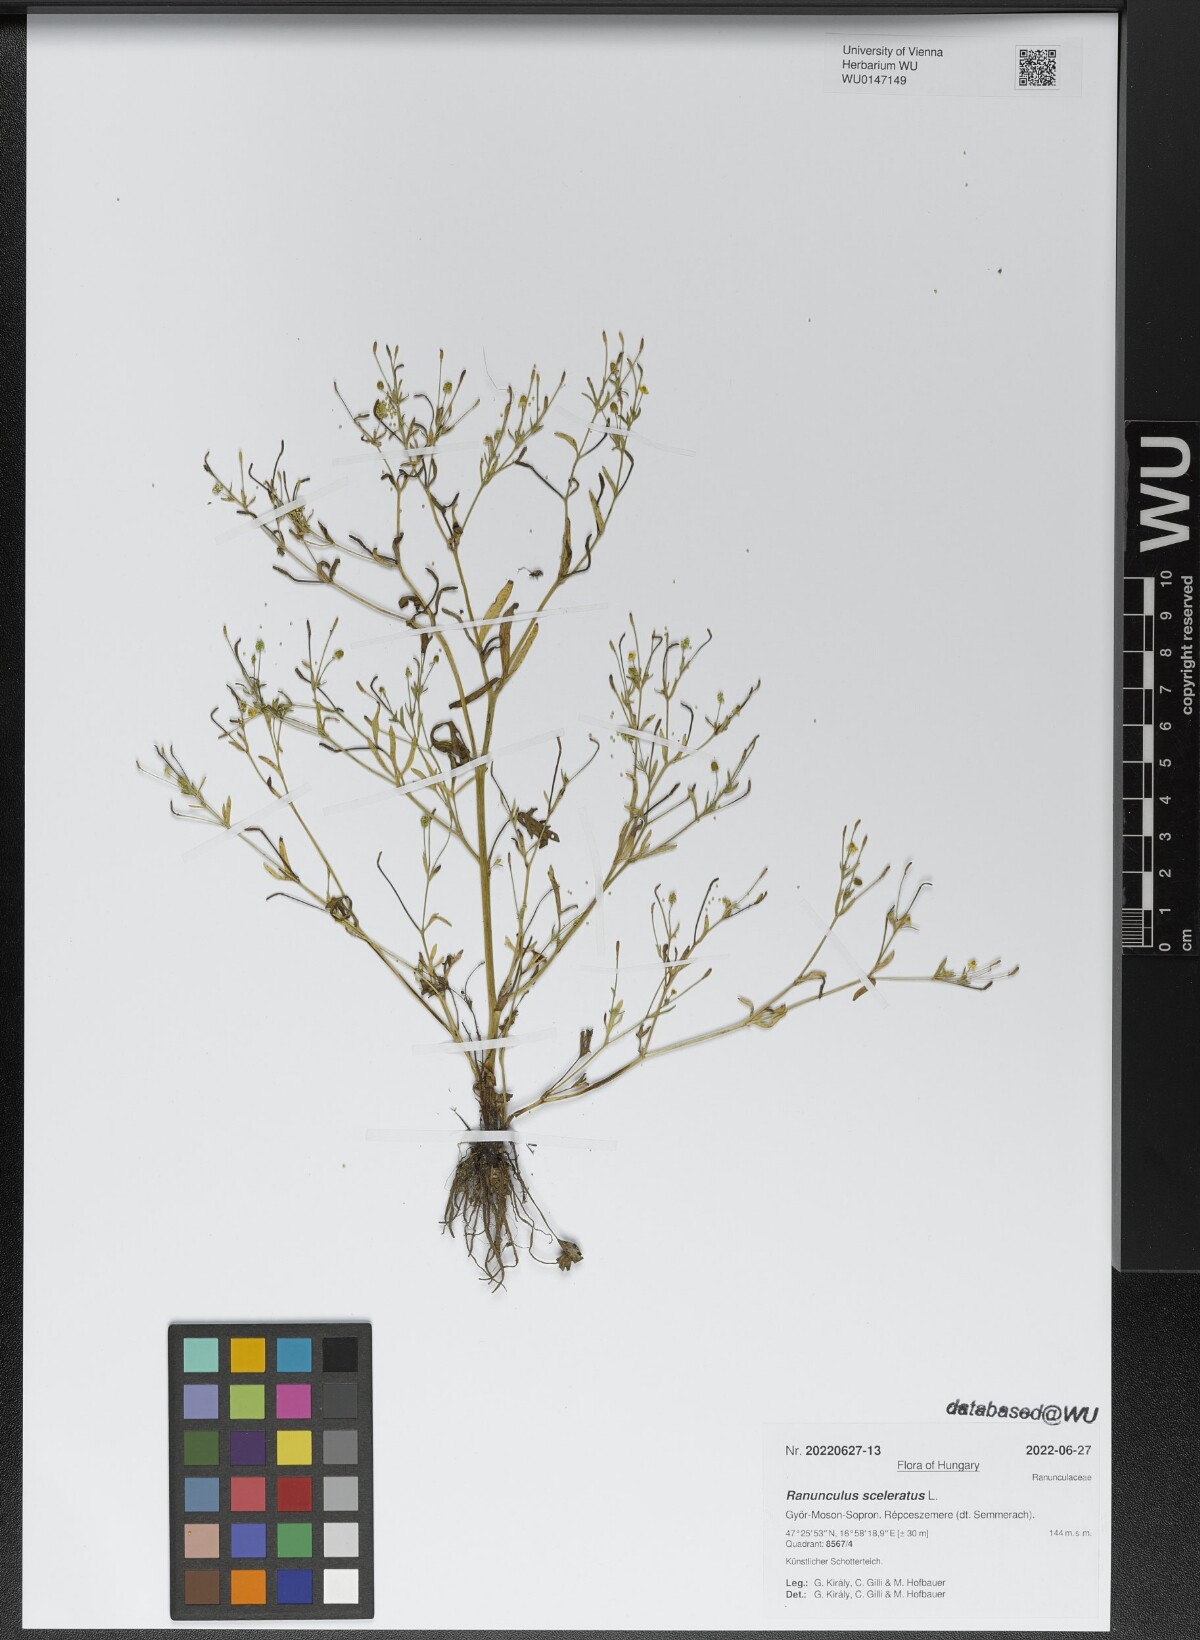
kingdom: Plantae
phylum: Tracheophyta
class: Magnoliopsida
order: Ranunculales
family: Ranunculaceae
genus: Ranunculus
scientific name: Ranunculus sceleratus
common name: Celery-leaved buttercup
